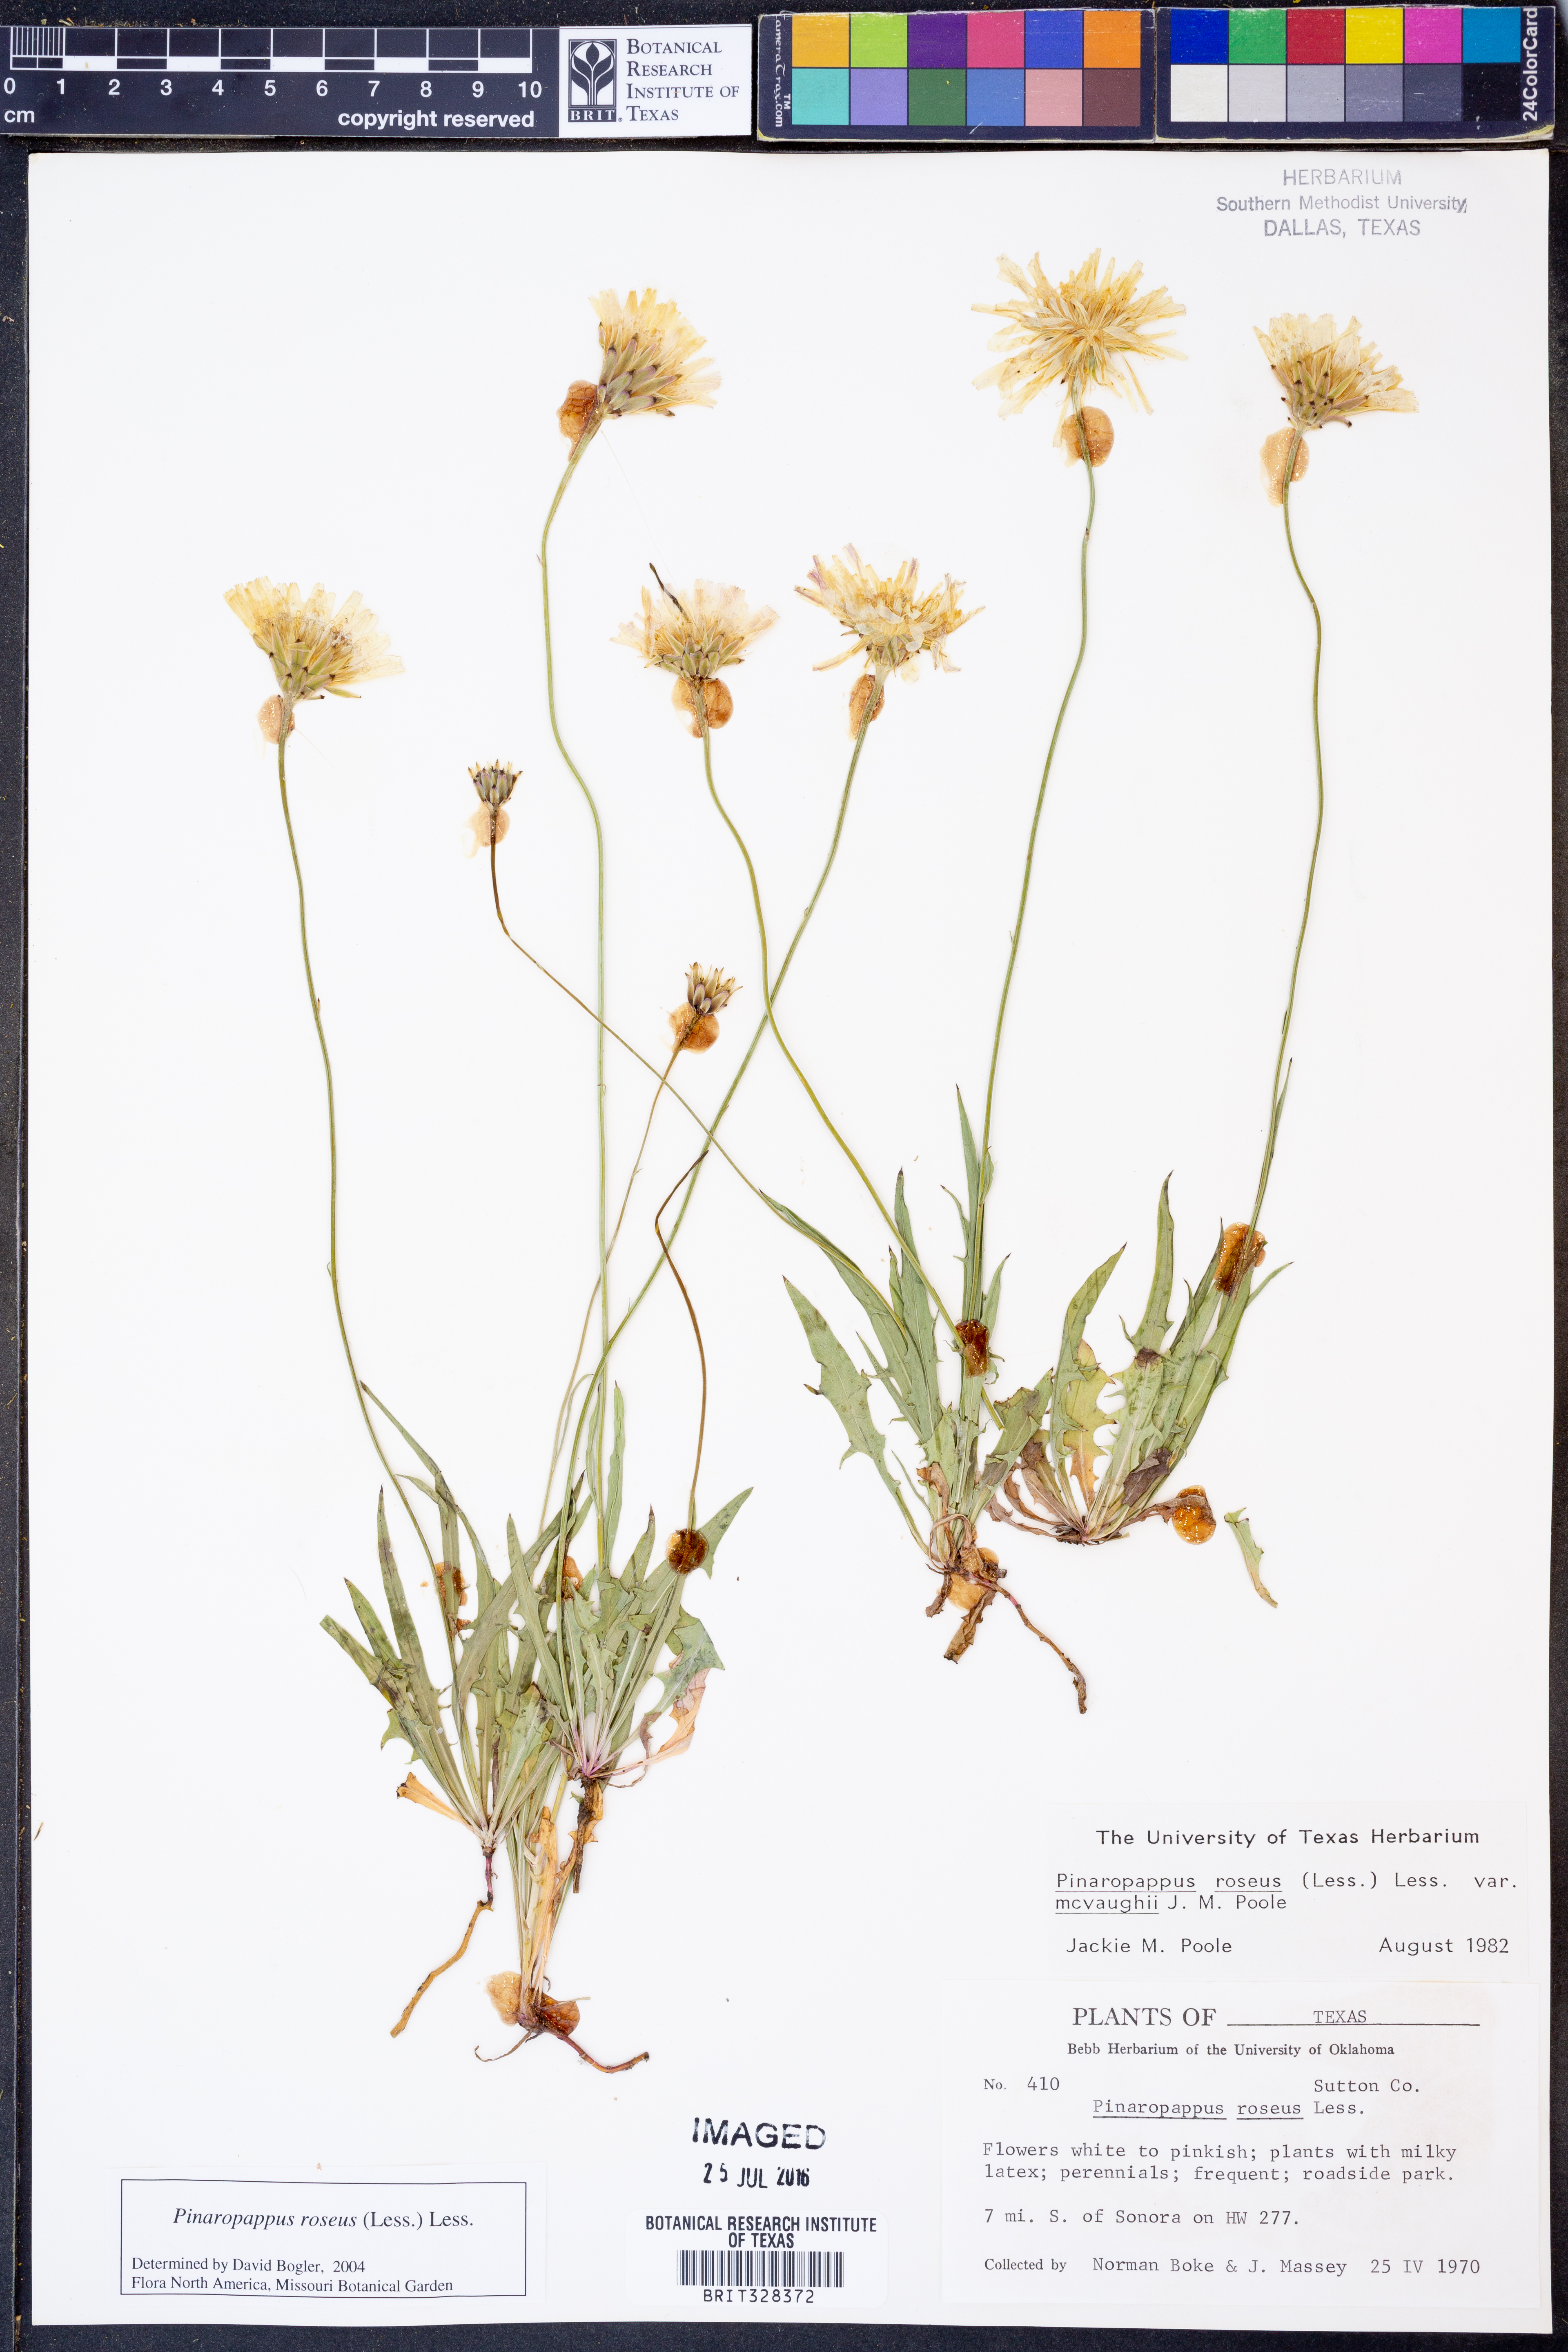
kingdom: Plantae
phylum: Tracheophyta
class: Magnoliopsida
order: Asterales
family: Asteraceae
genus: Pinaropappus
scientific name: Pinaropappus roseus
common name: Rock-lettuce
